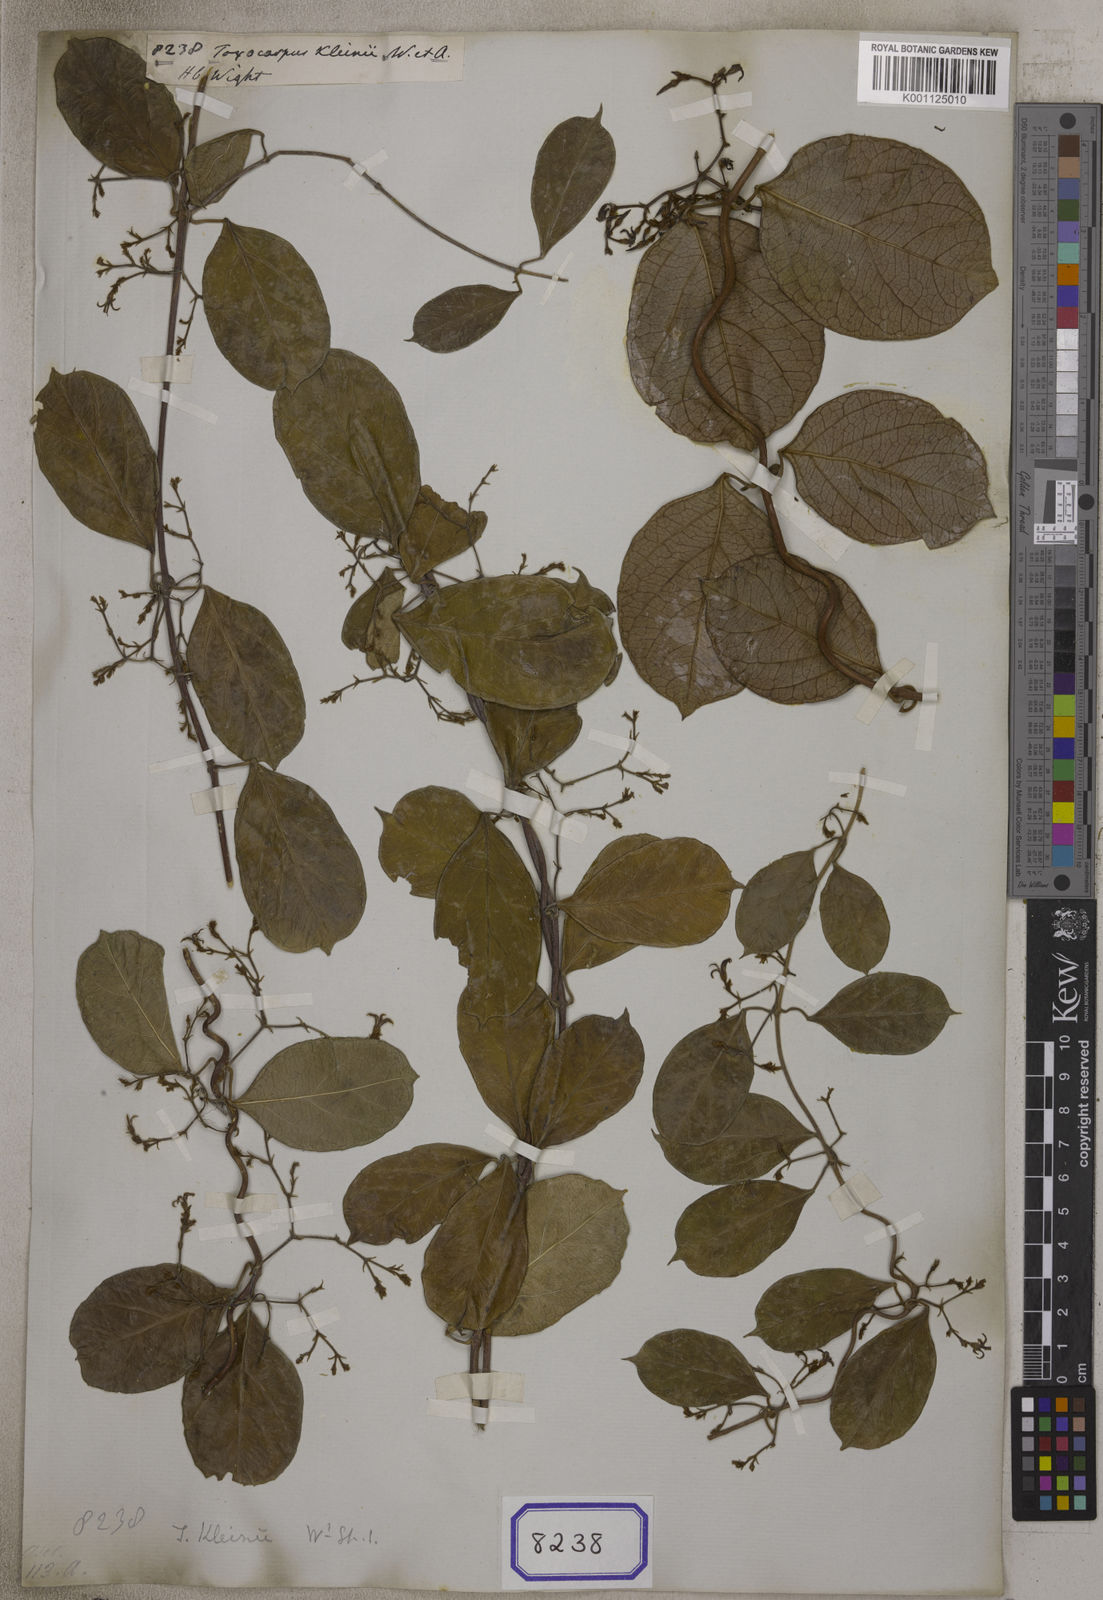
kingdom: Plantae
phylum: Tracheophyta
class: Magnoliopsida
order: Gentianales
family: Apocynaceae
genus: Toxocarpus
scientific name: Toxocarpus kleinii
